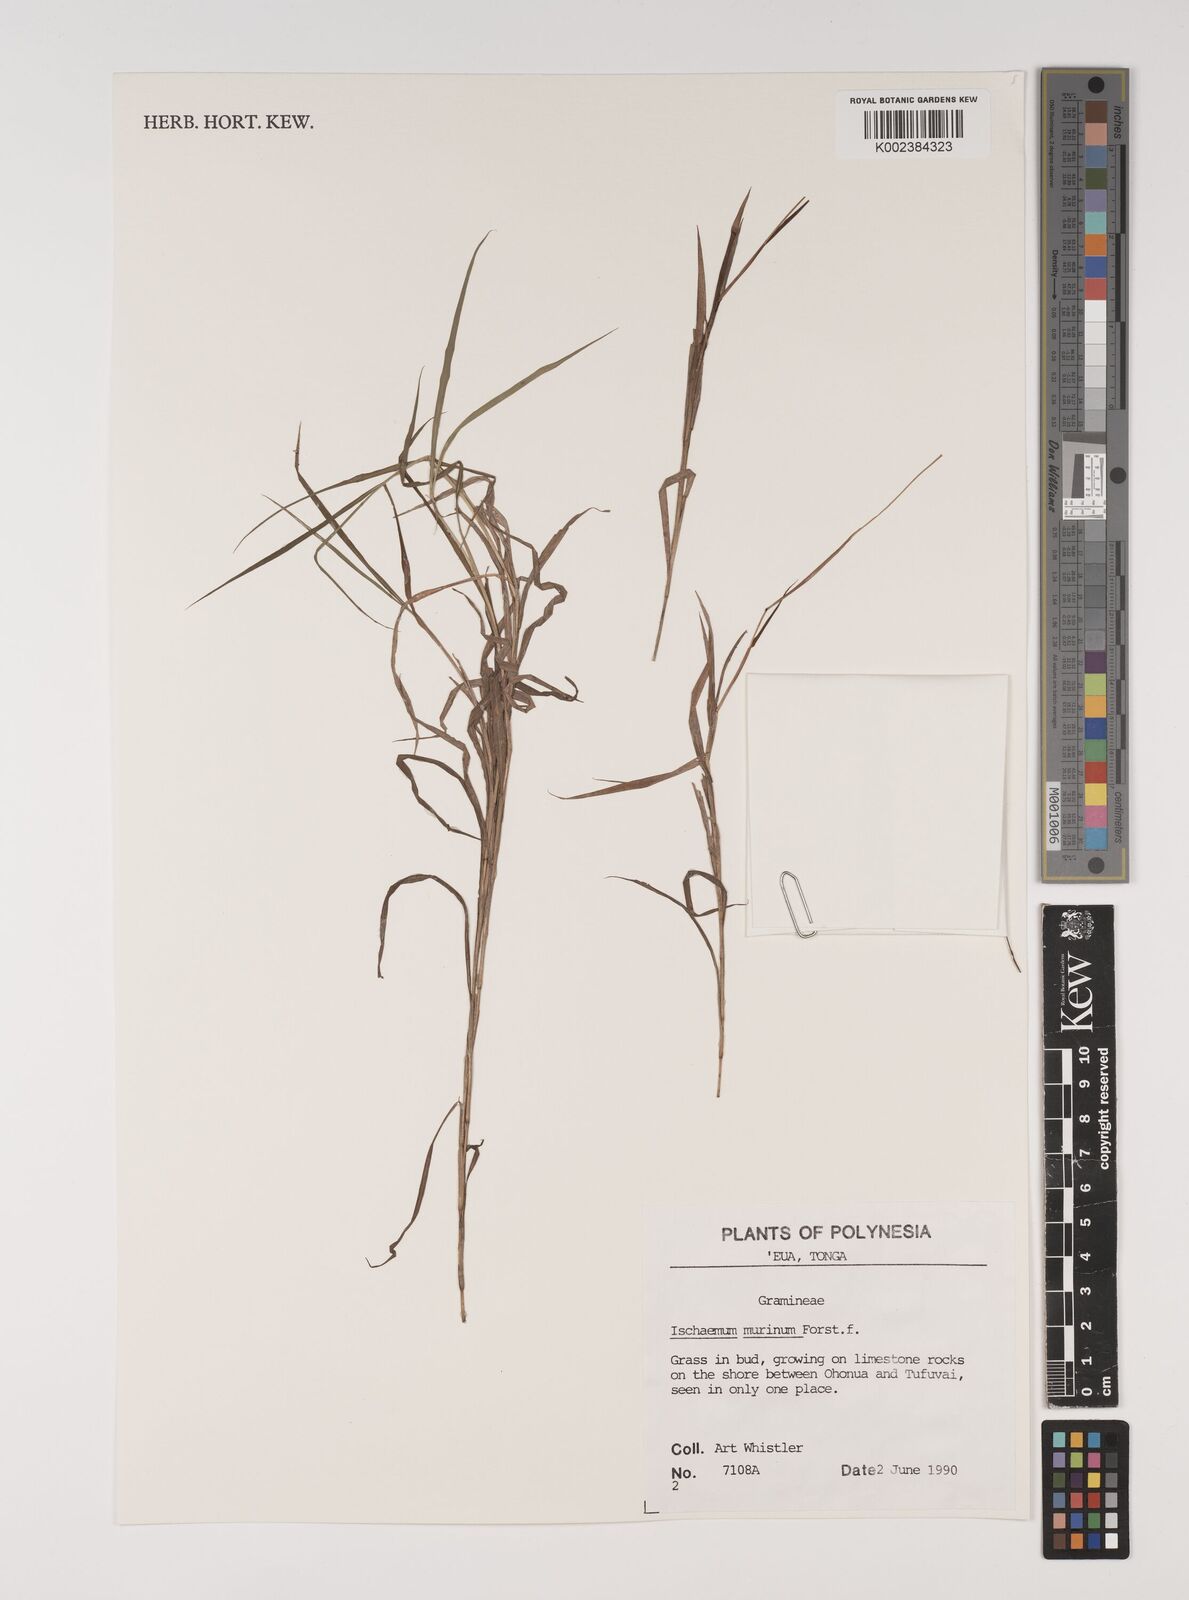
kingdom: Plantae
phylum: Tracheophyta
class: Liliopsida
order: Poales
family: Poaceae
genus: Ischaemum
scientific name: Ischaemum murinum
